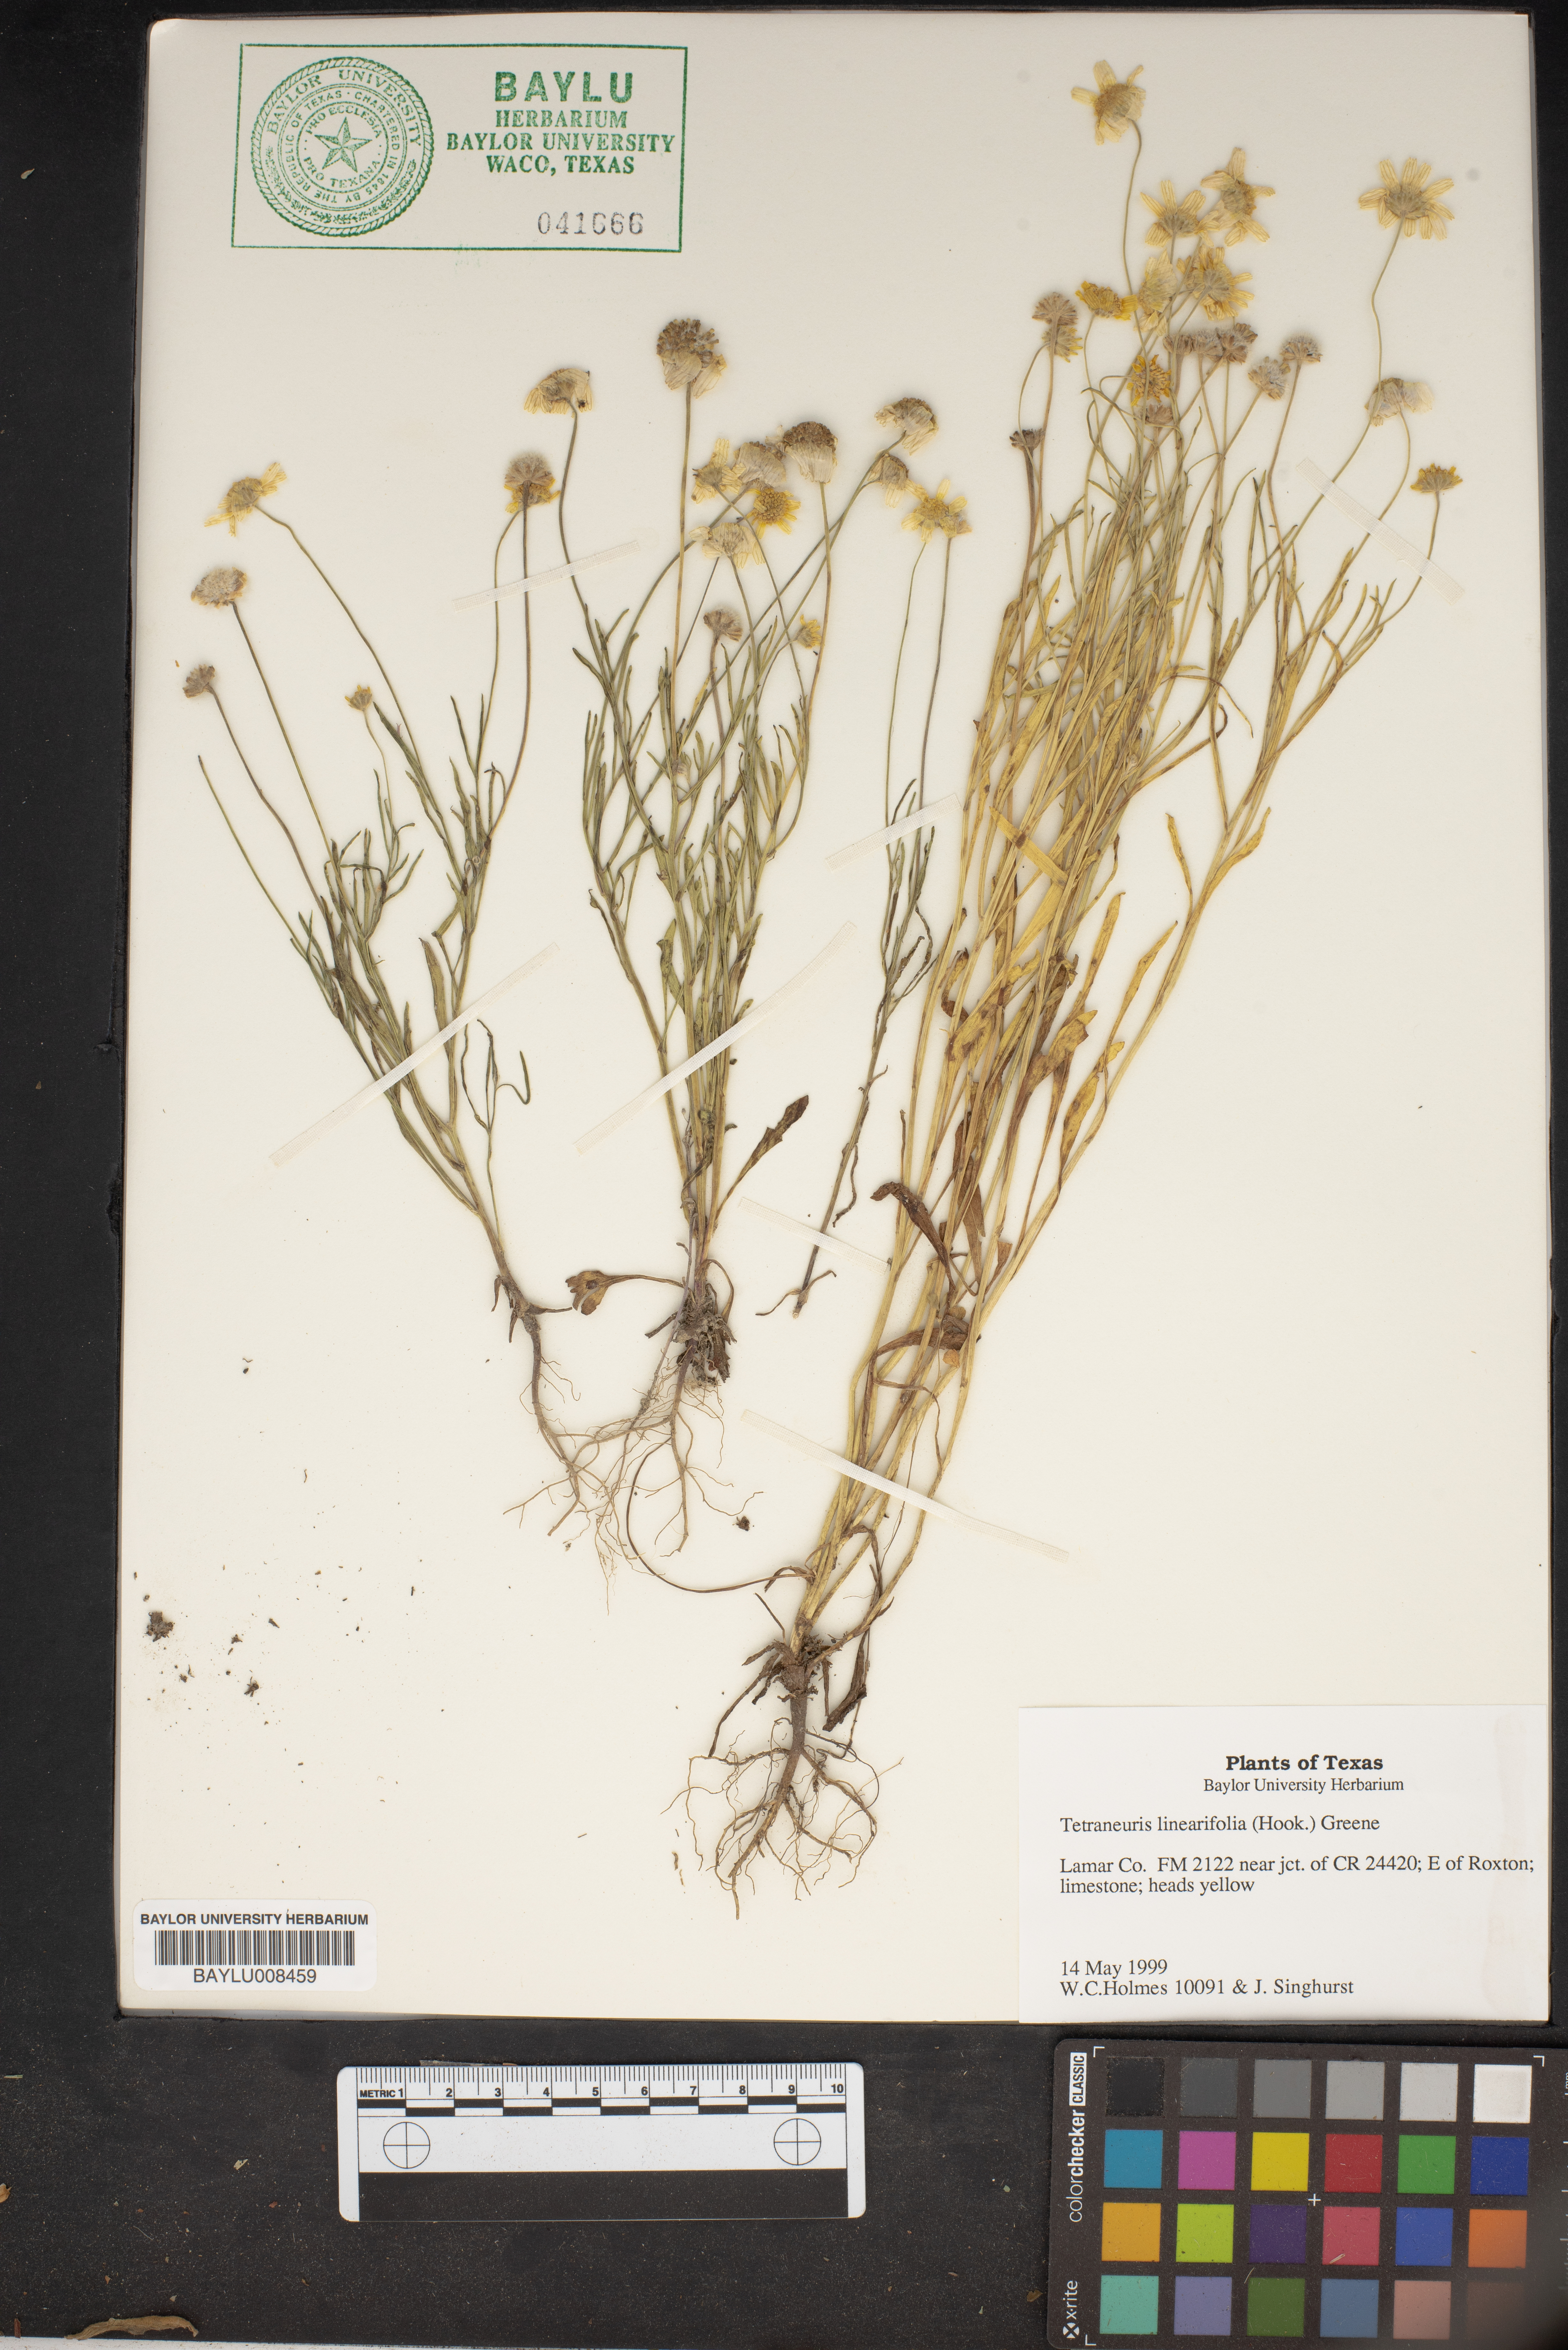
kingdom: Plantae
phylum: Tracheophyta
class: Magnoliopsida
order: Asterales
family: Asteraceae
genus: Tetraneuris
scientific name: Tetraneuris linearifolia
